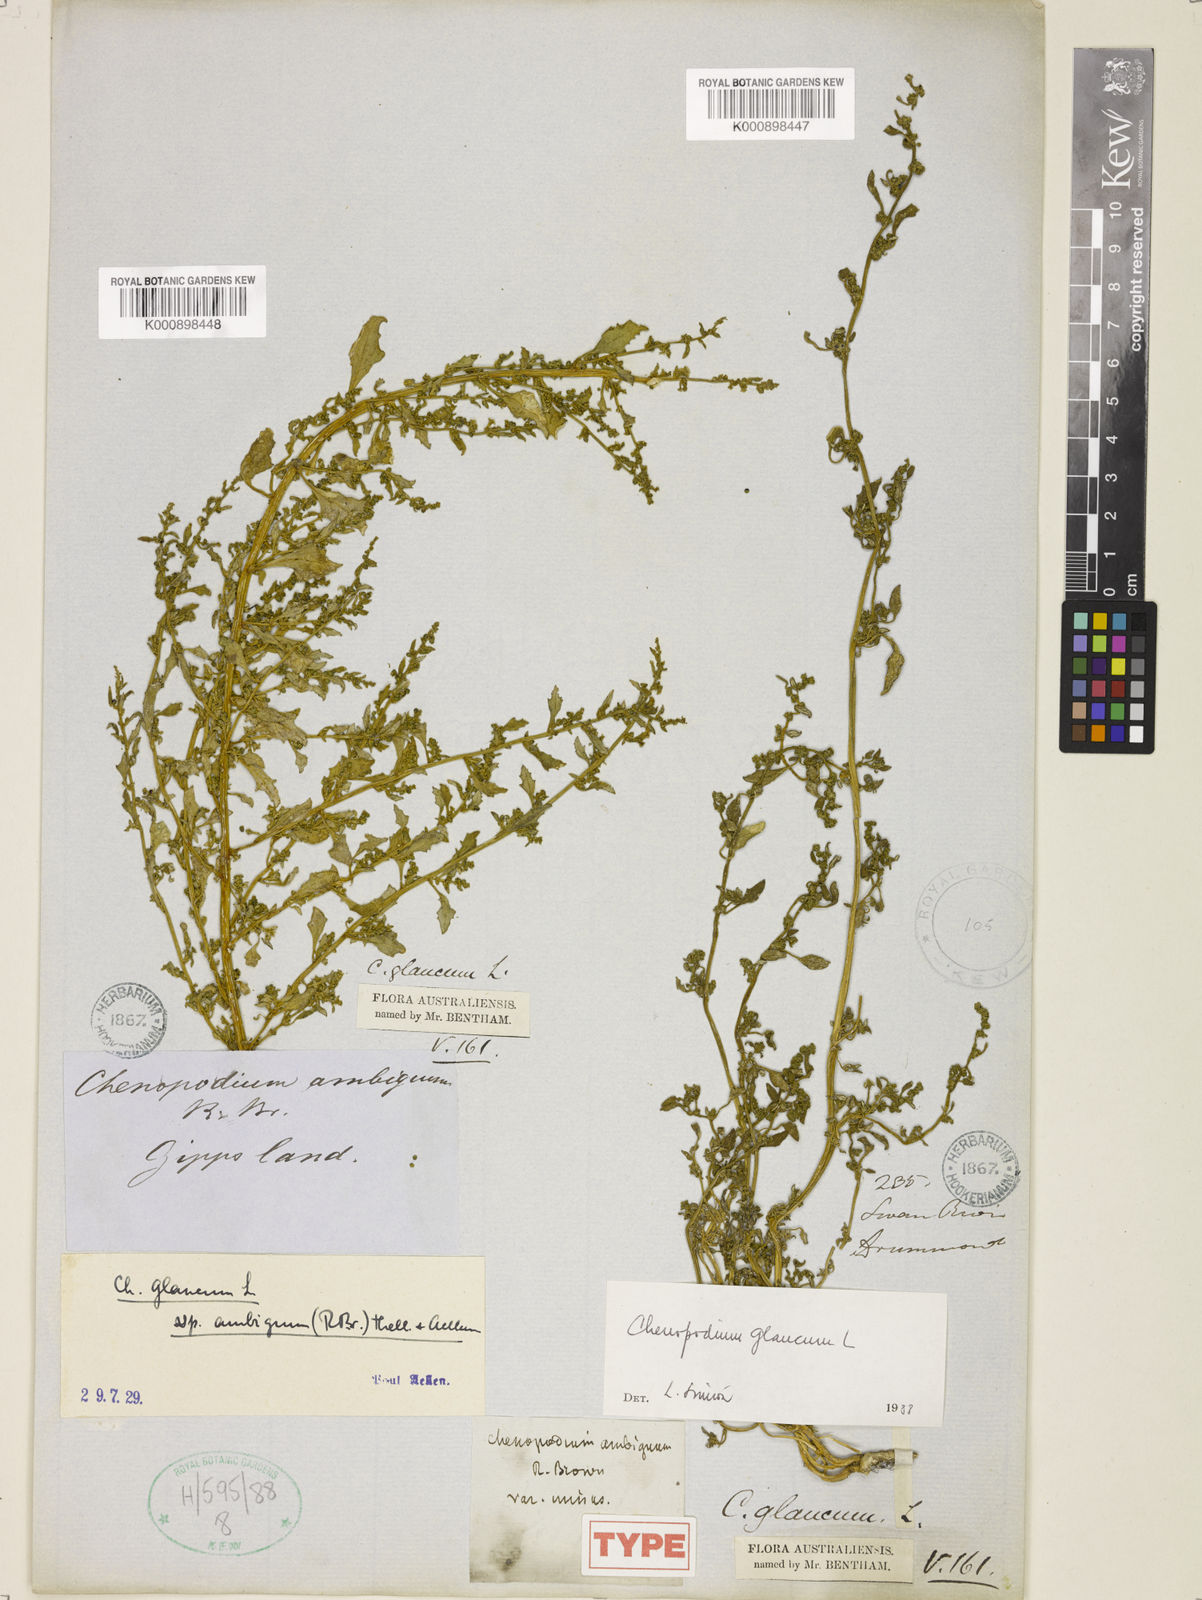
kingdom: Plantae
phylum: Tracheophyta
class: Magnoliopsida
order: Caryophyllales
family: Amaranthaceae
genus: Oxybasis
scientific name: Oxybasis ambigua
